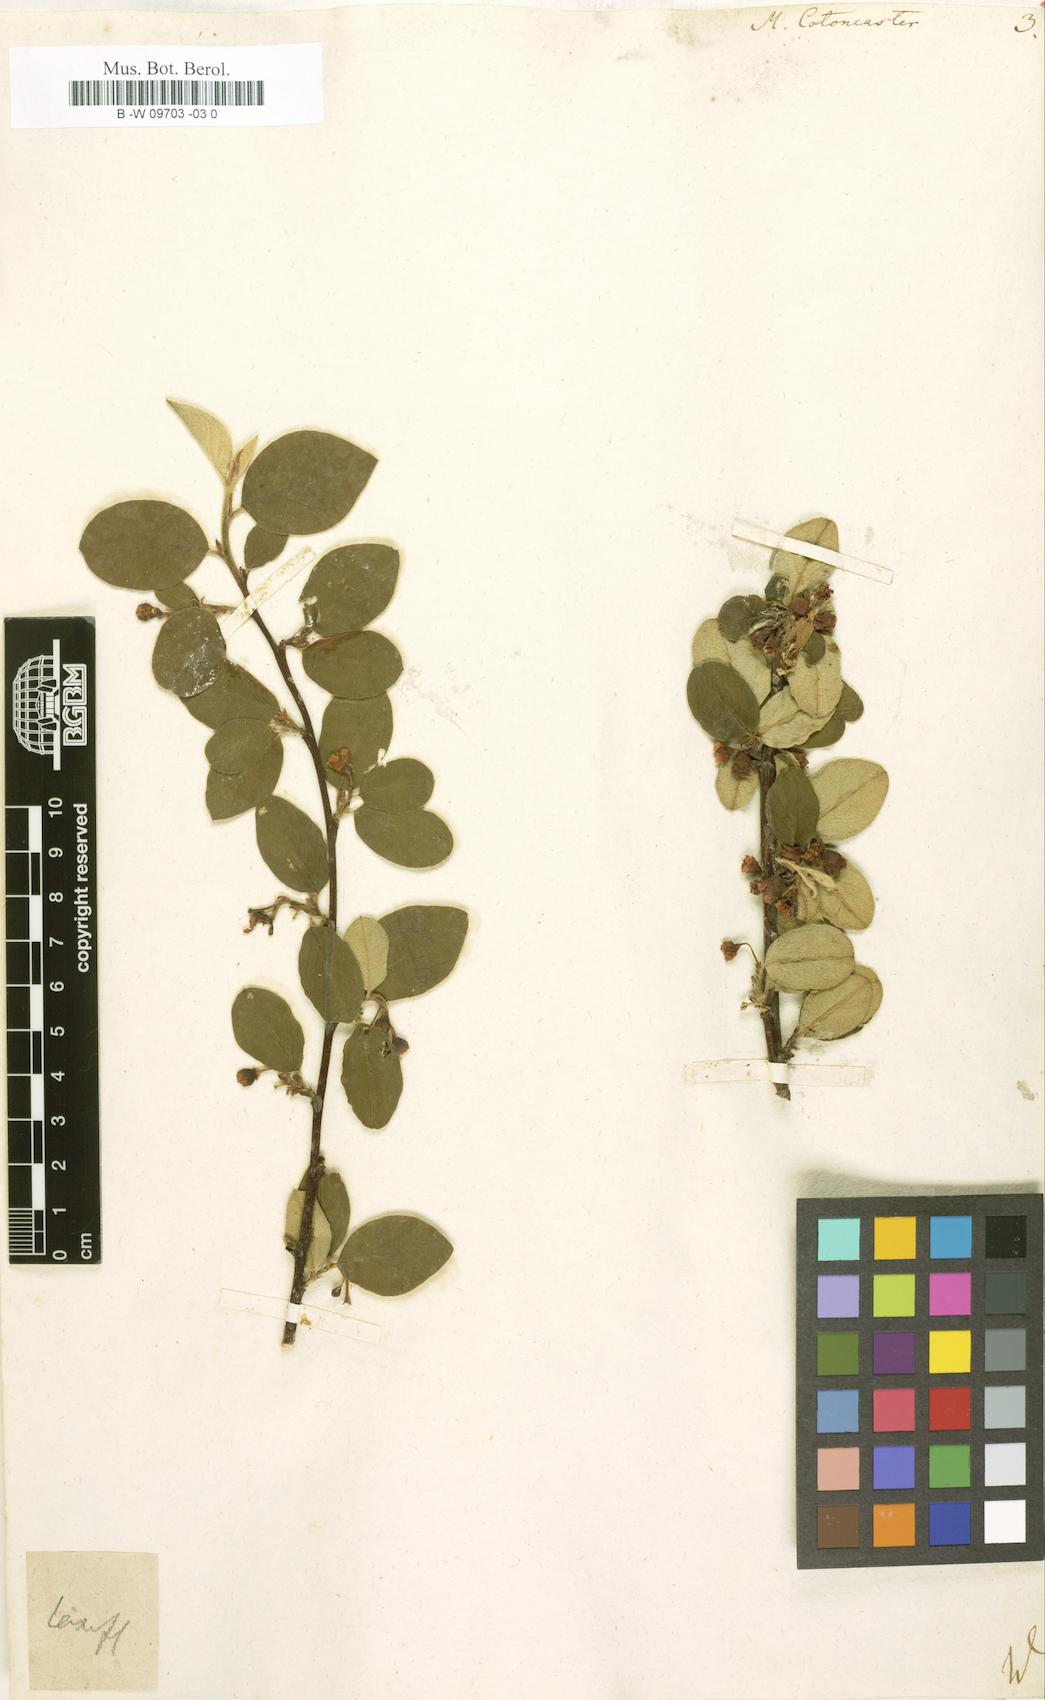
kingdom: Plantae
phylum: Tracheophyta
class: Magnoliopsida
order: Rosales
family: Rosaceae
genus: Cotoneaster
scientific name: Cotoneaster integerrimus
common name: Wild cotoneaster
